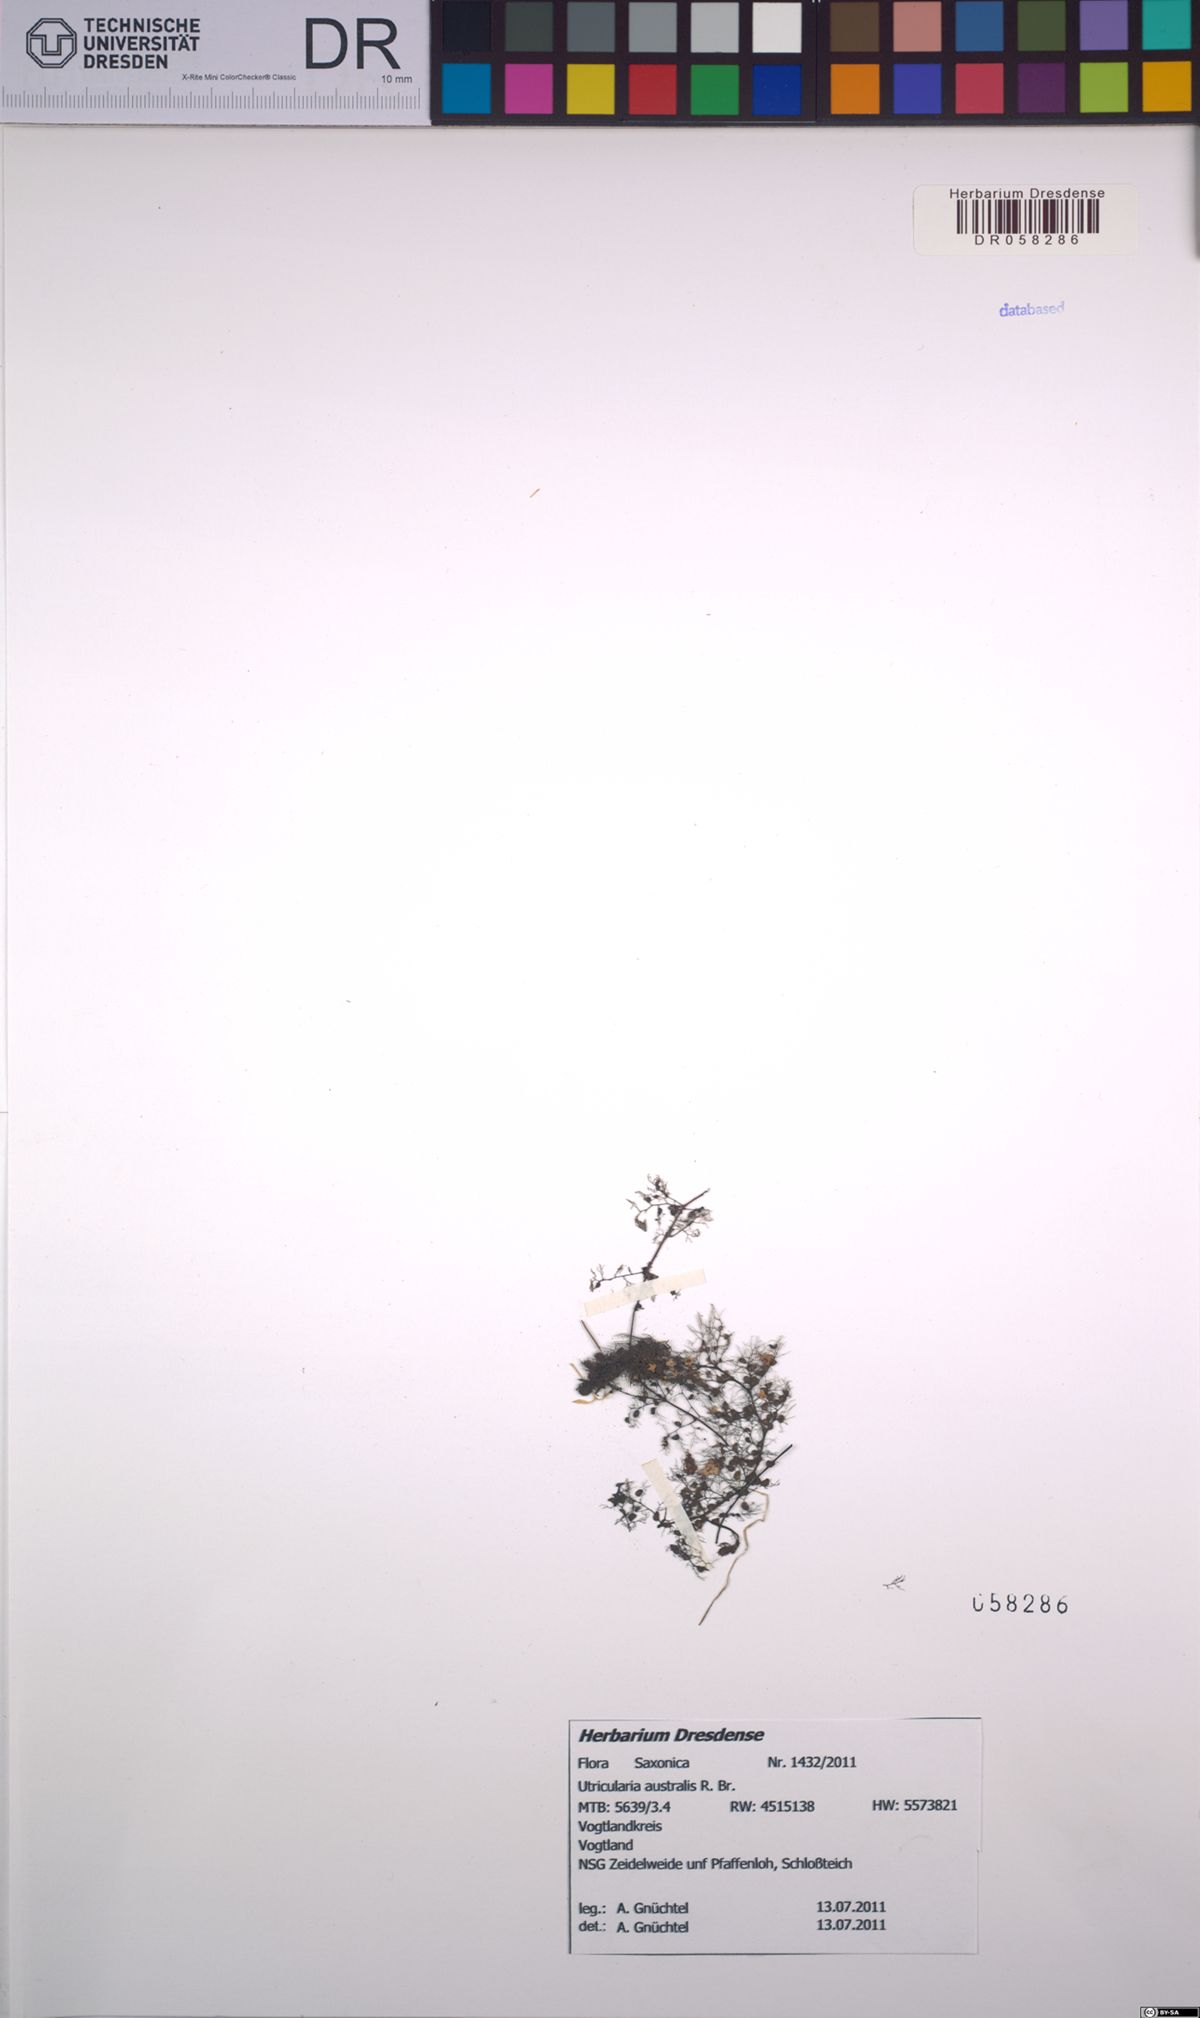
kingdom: Plantae
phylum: Tracheophyta
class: Magnoliopsida
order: Lamiales
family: Lentibulariaceae
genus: Utricularia
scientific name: Utricularia australis
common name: Bladderwort
